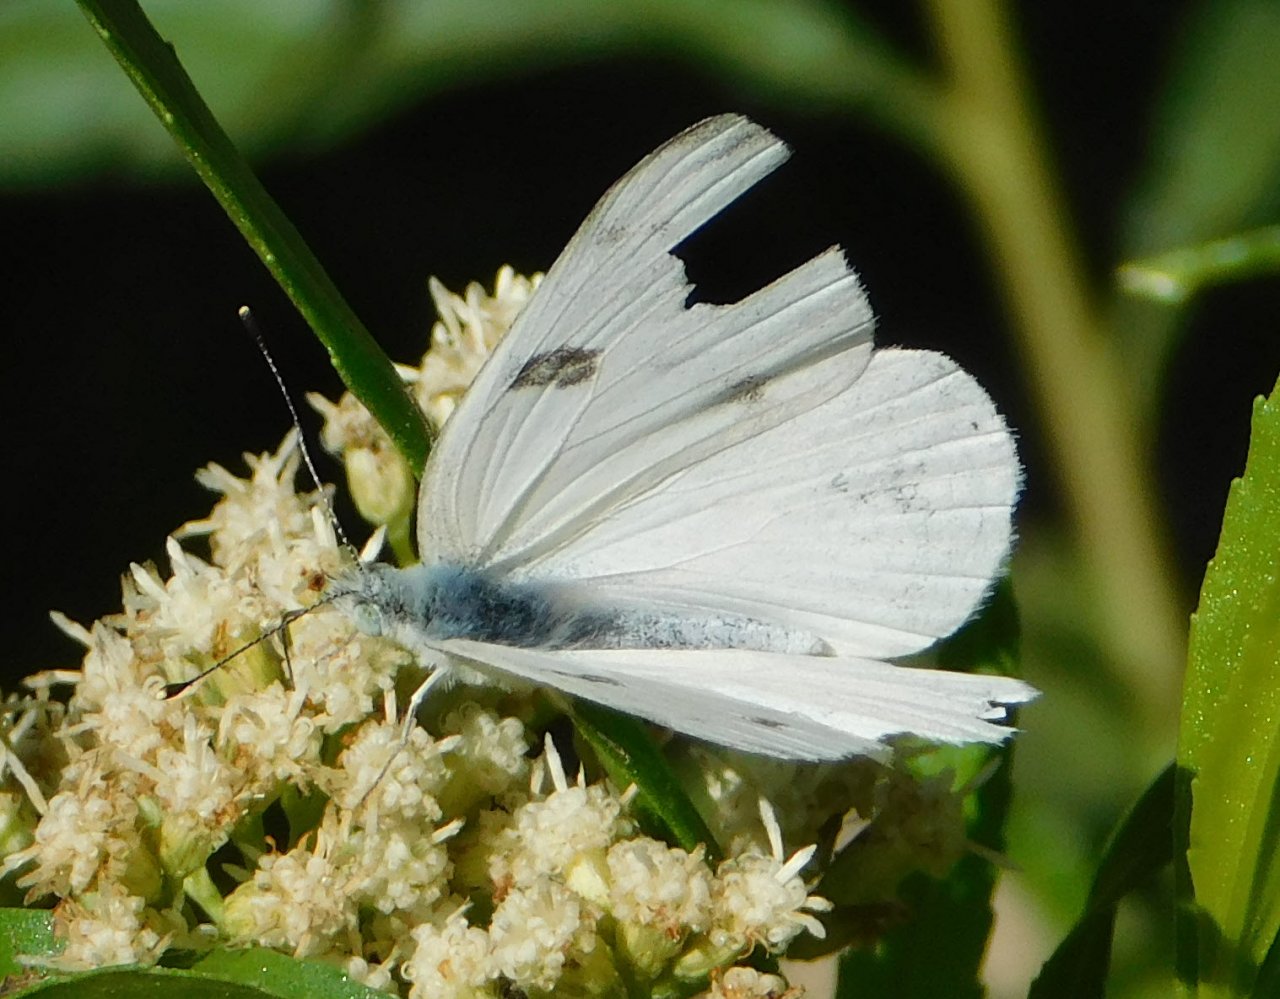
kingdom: Animalia
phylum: Arthropoda
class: Insecta
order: Lepidoptera
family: Pieridae
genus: Pontia
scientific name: Pontia protodice
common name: Checkered White
